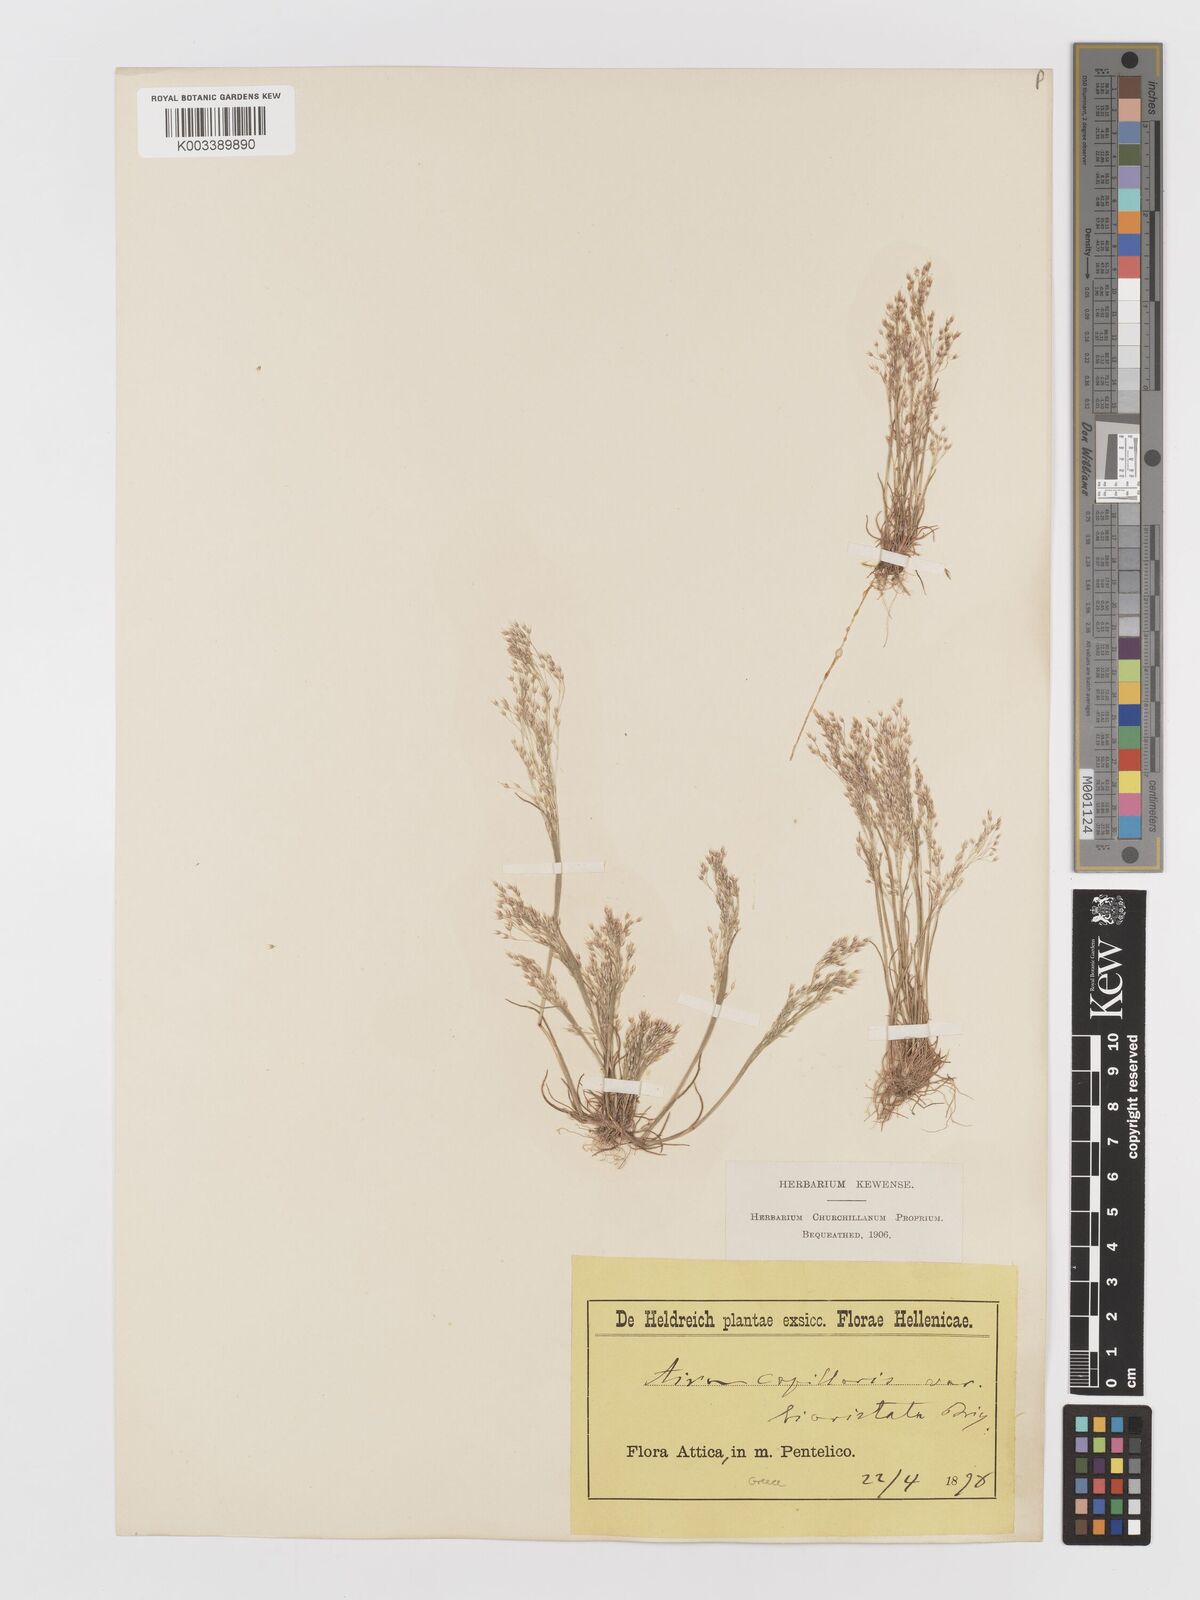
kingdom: Plantae
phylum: Tracheophyta
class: Liliopsida
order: Poales
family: Poaceae
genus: Aira
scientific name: Aira elegans
